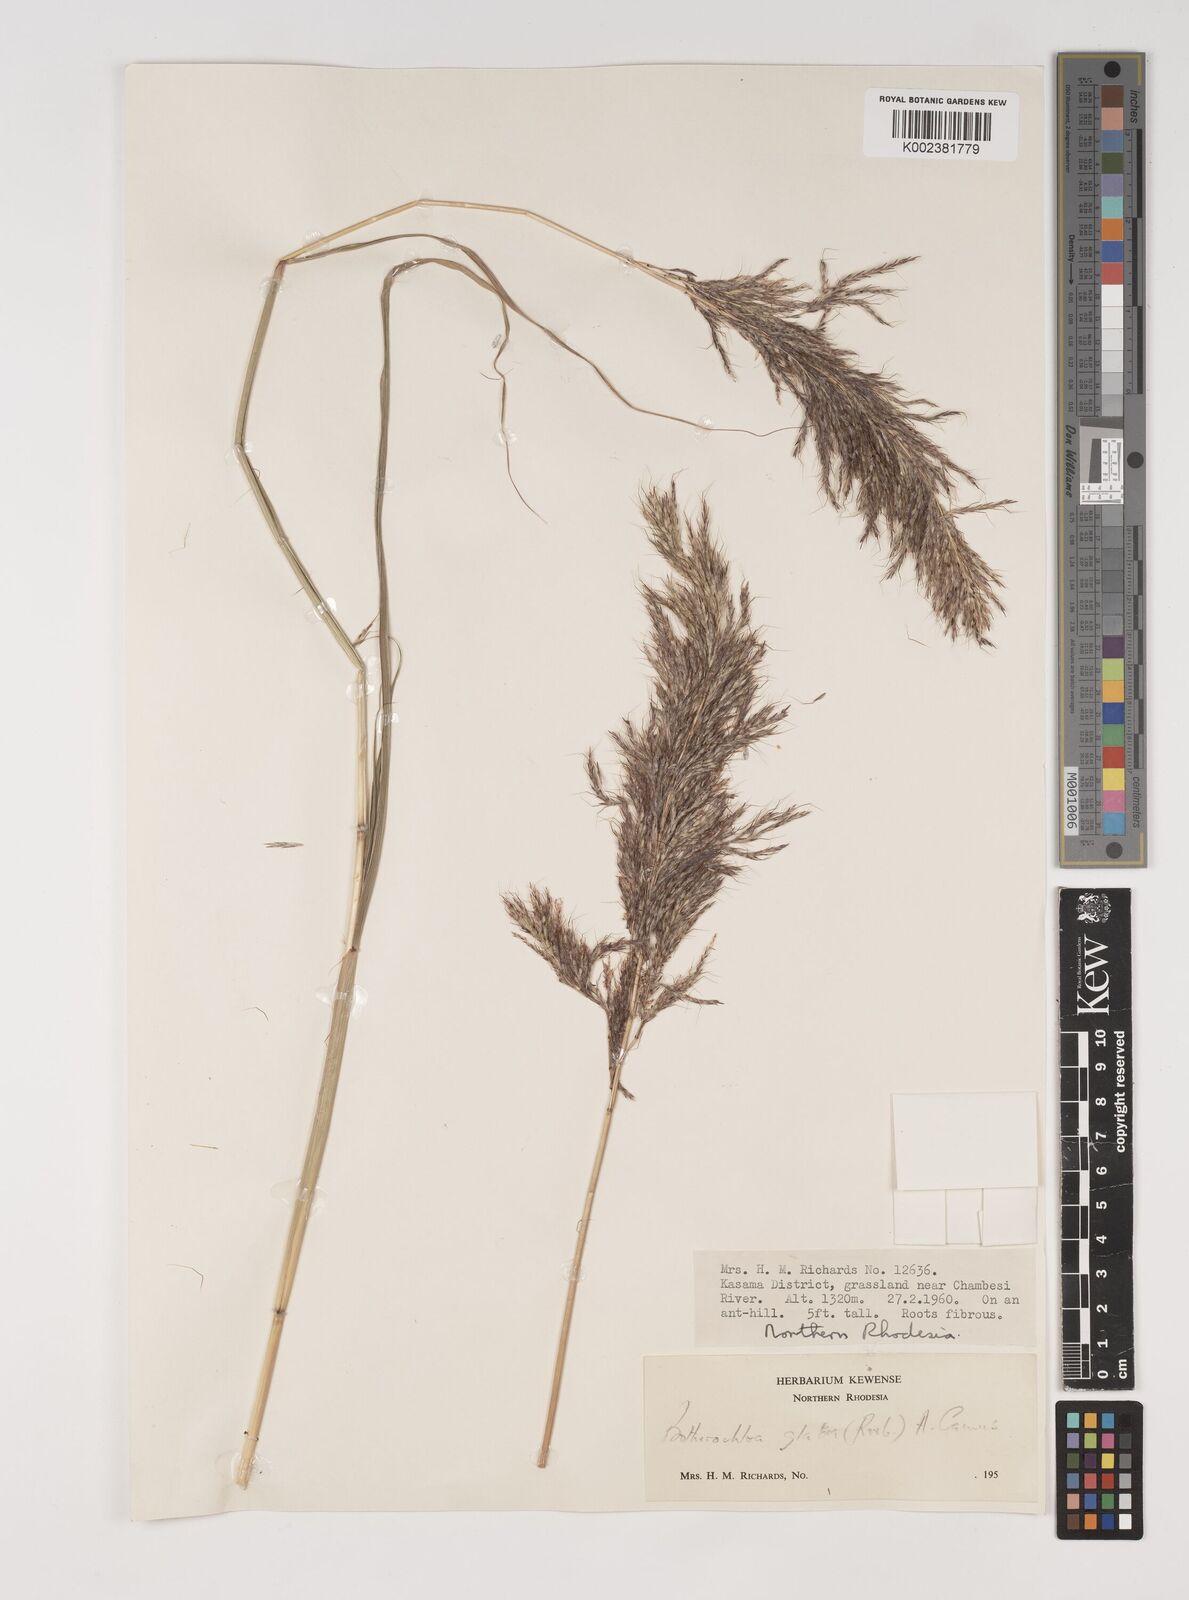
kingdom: Plantae
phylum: Tracheophyta
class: Liliopsida
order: Poales
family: Poaceae
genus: Bothriochloa
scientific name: Bothriochloa bladhii
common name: Caucasian bluestem
